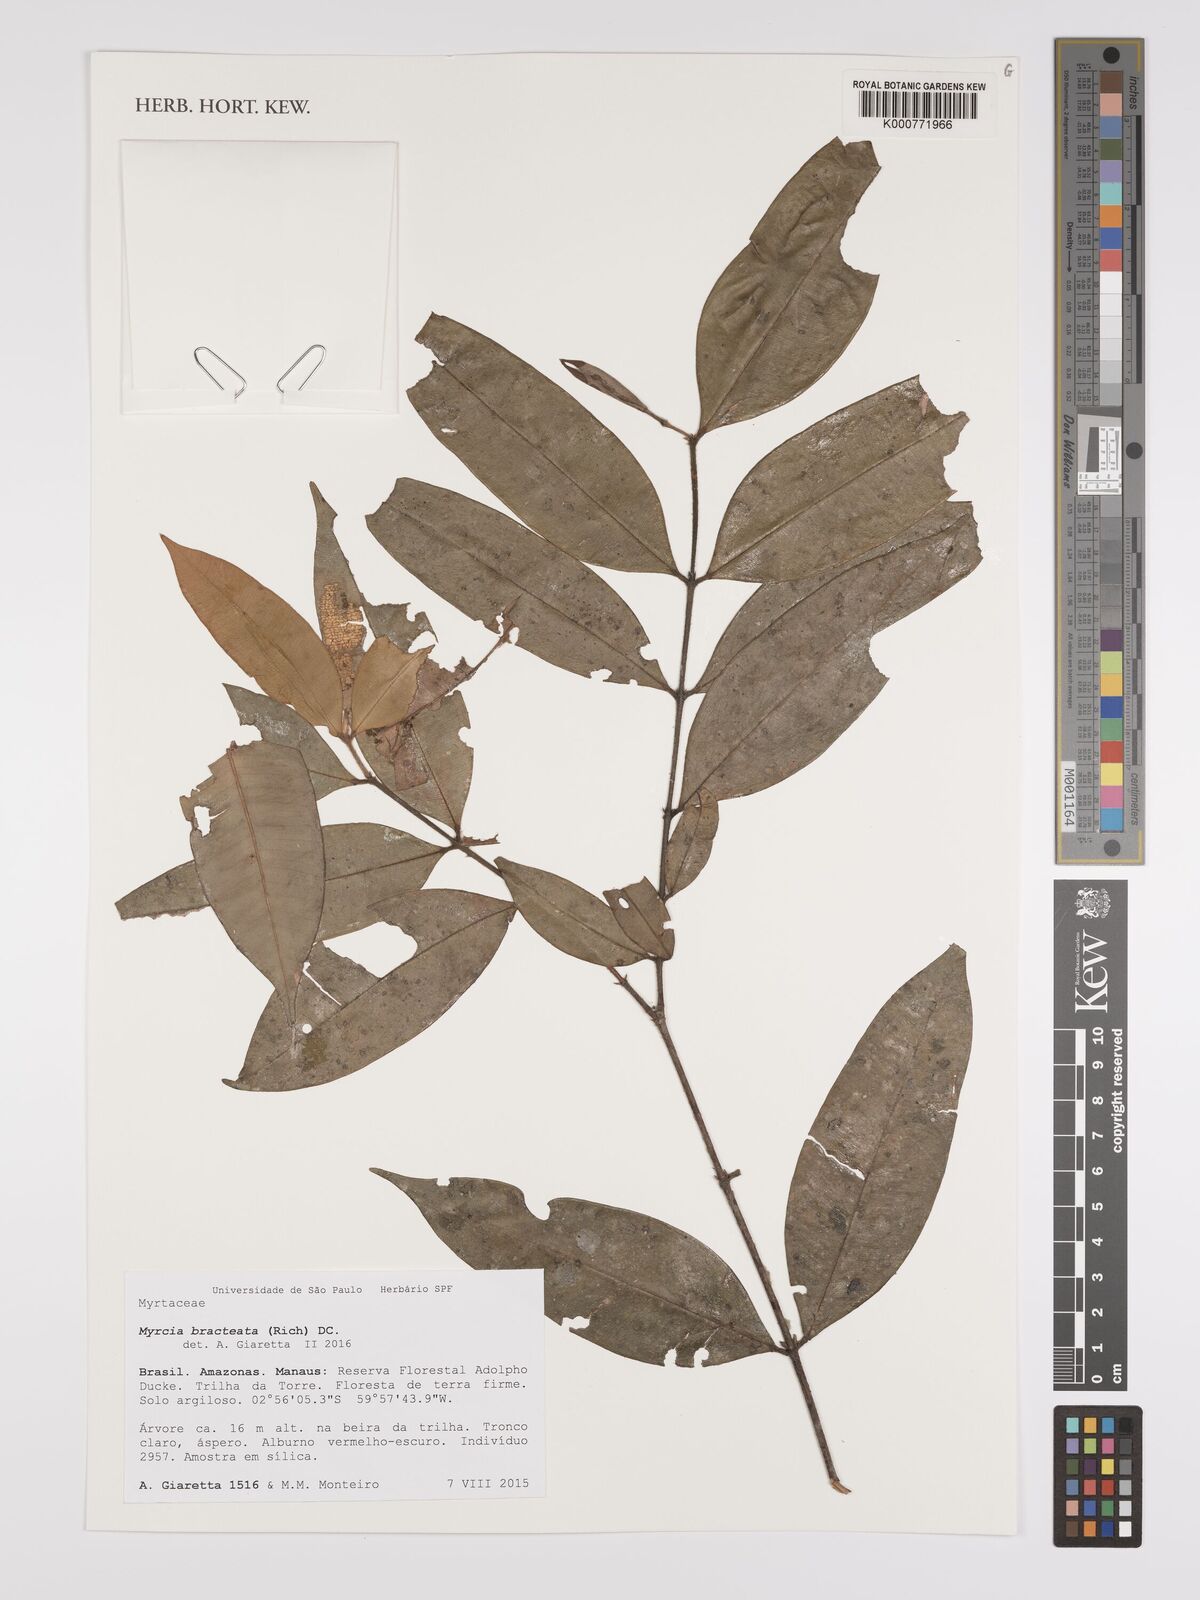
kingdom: Plantae
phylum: Tracheophyta
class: Magnoliopsida
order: Myrtales
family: Myrtaceae
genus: Myrcia
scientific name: Myrcia bracteata
